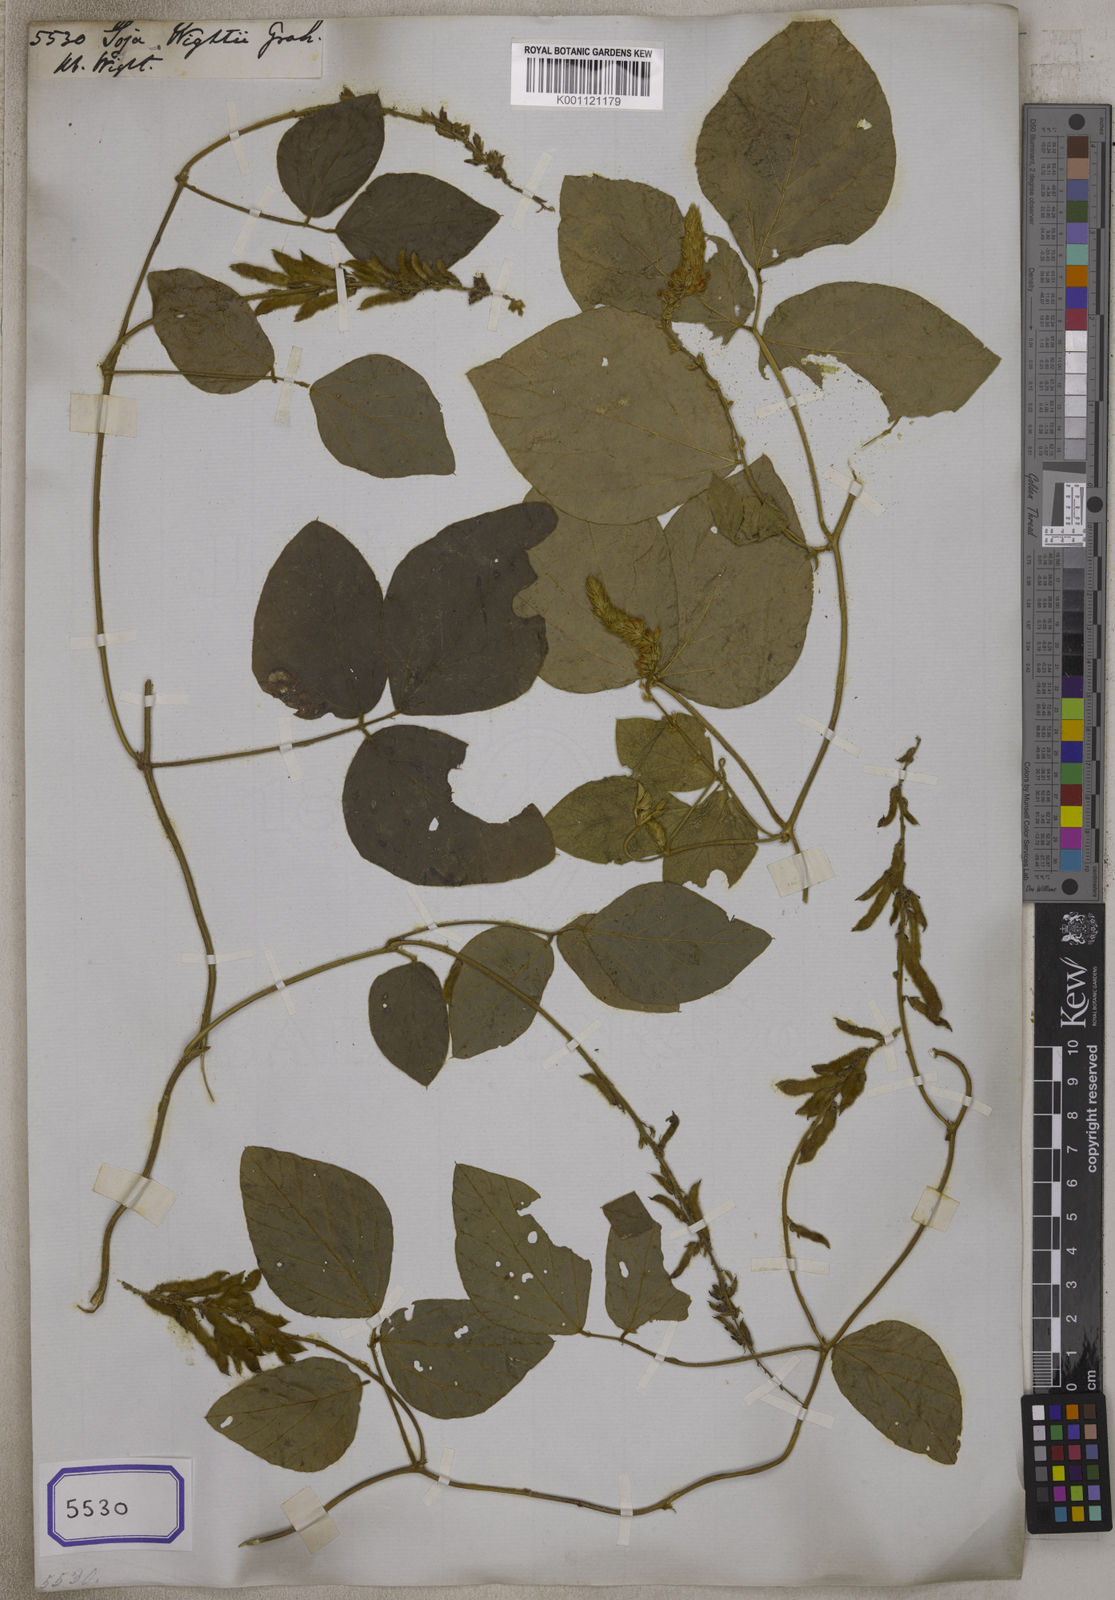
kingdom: Plantae
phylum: Tracheophyta
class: Magnoliopsida
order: Fabales
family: Fabaceae
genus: Neonotonia
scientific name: Neonotonia wightii
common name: Perennial soybean
